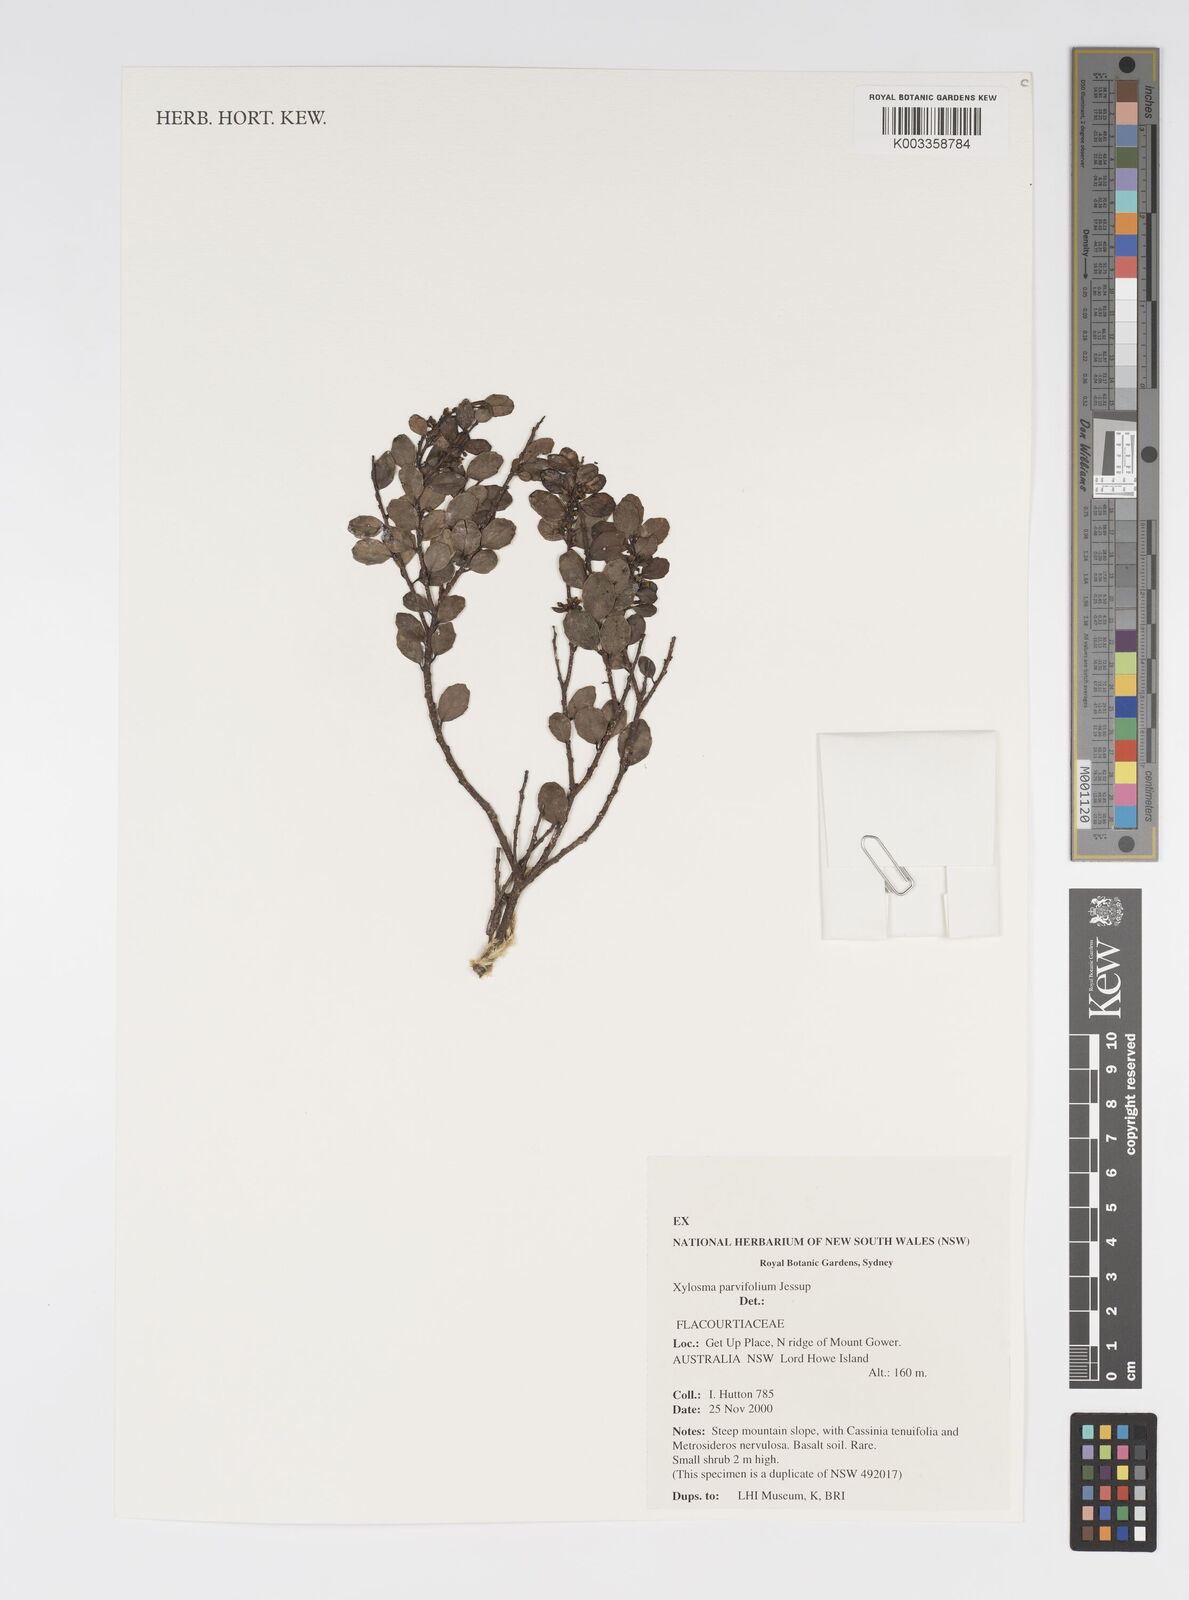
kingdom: Plantae
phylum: Tracheophyta
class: Magnoliopsida
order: Malpighiales
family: Salicaceae
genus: Xylosma
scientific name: Xylosma parvifolia
